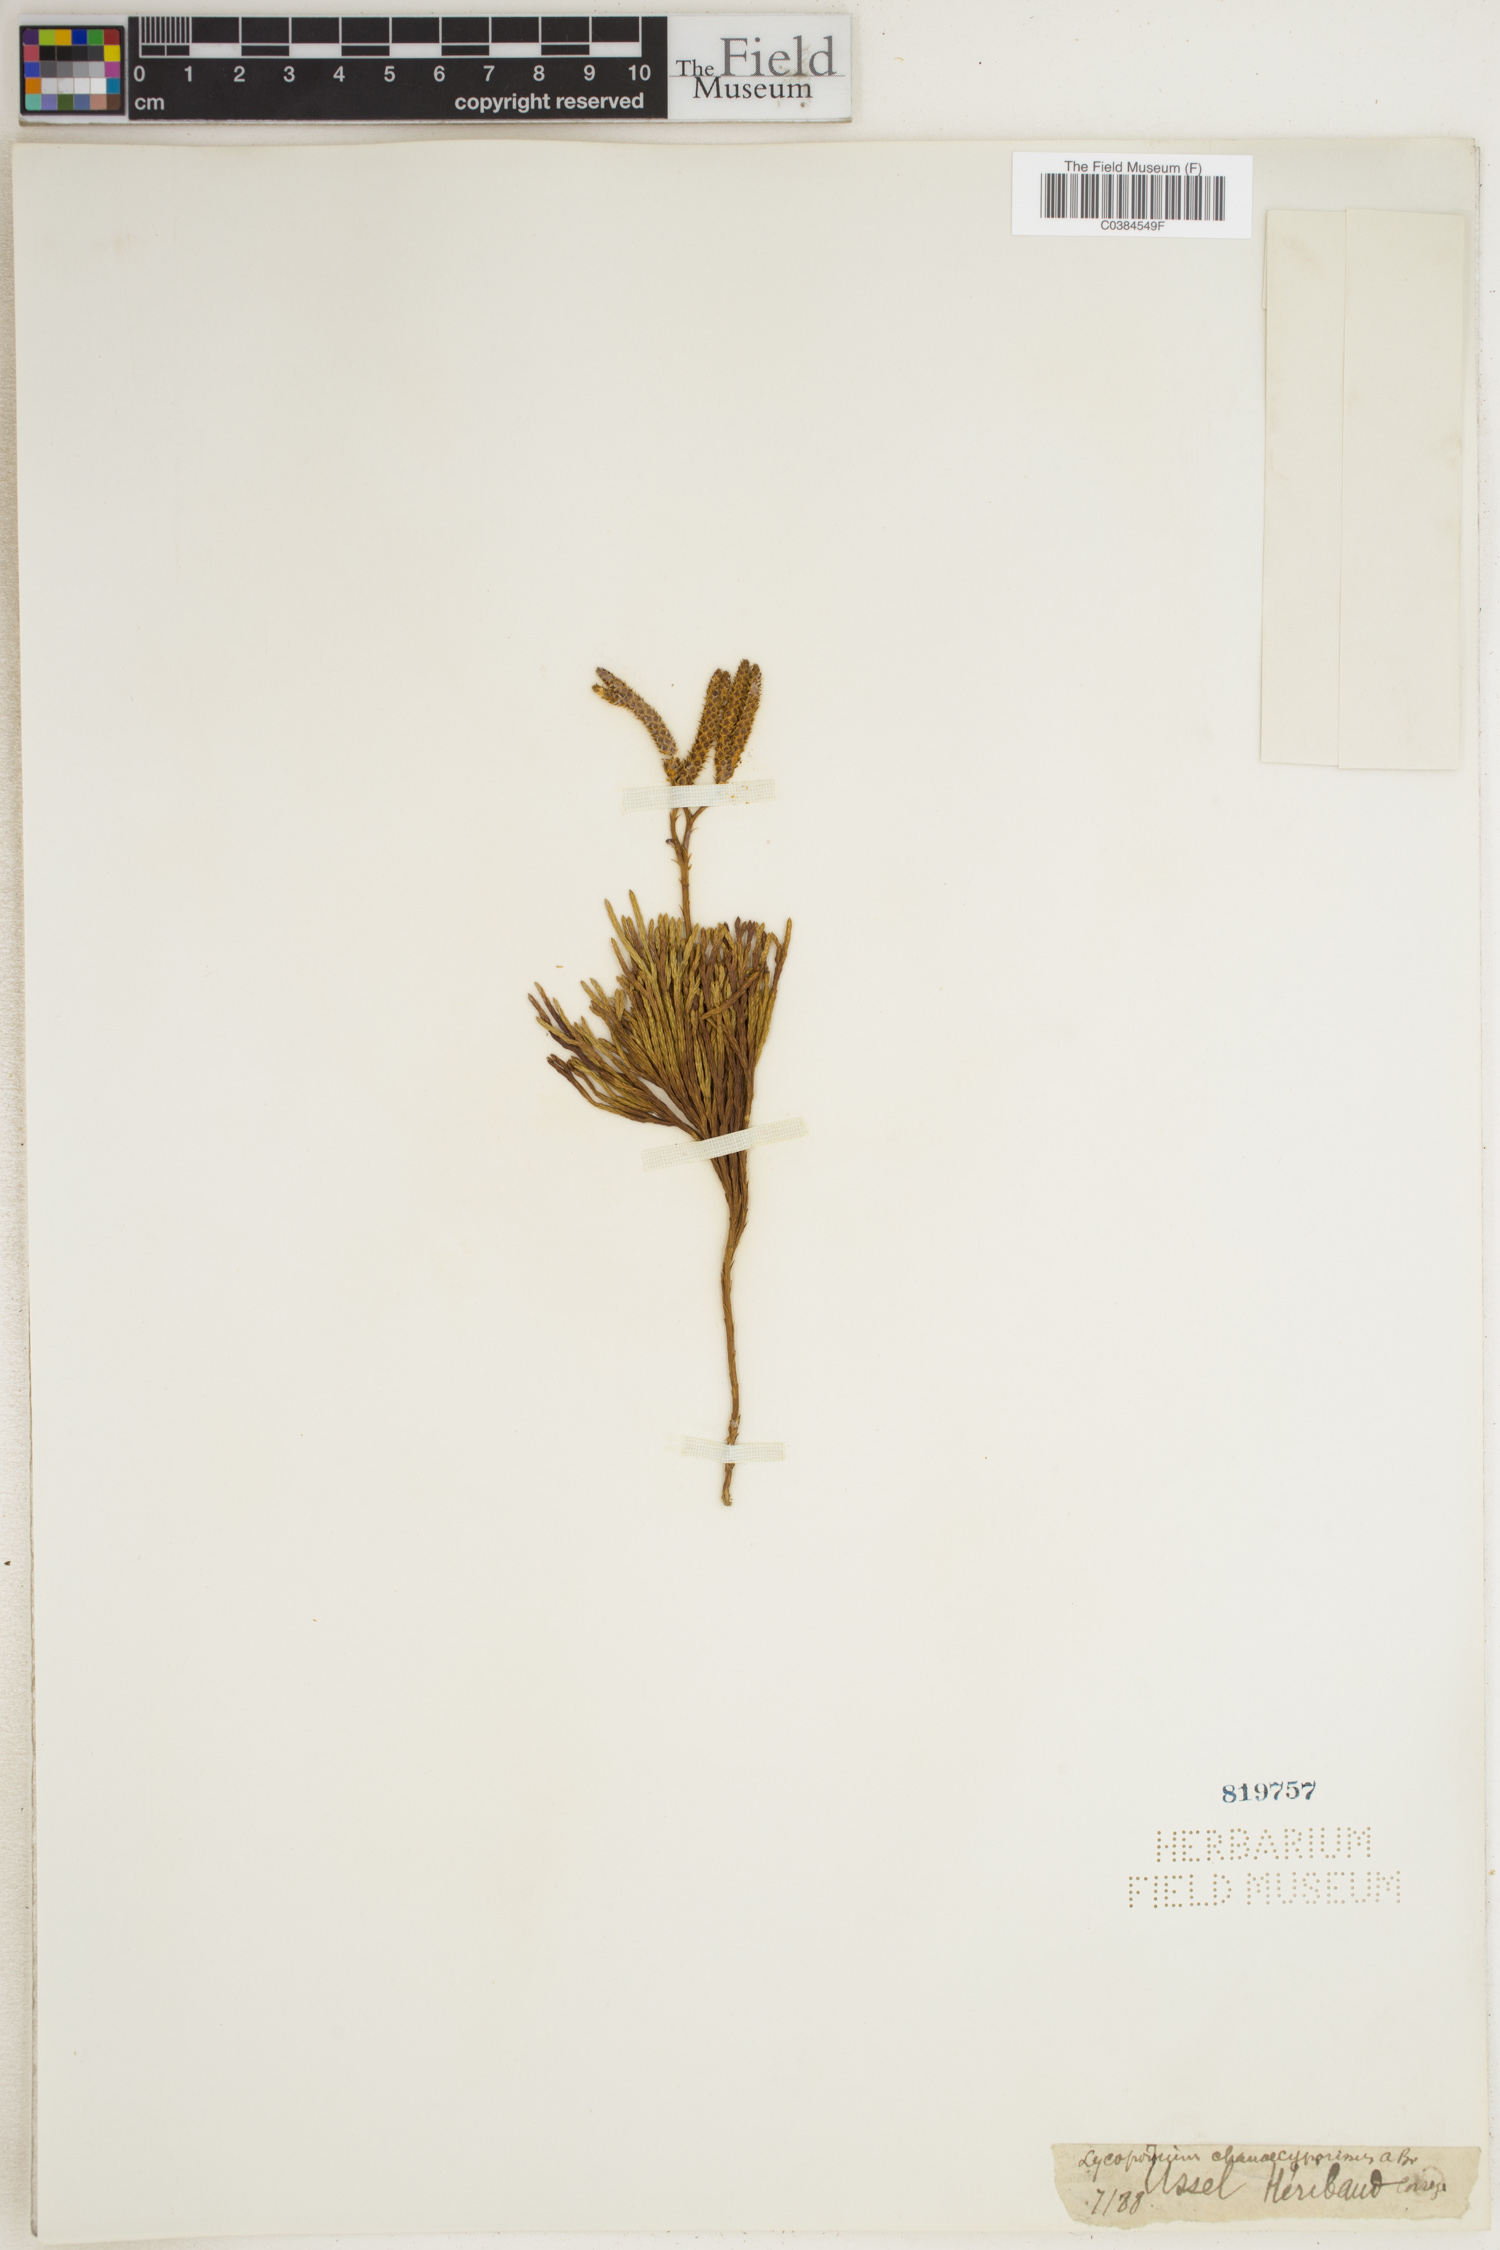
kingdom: Plantae
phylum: Tracheophyta
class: Lycopodiopsida
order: Lycopodiales
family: Lycopodiaceae
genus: Diphasiastrum
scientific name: Diphasiastrum tristachyum
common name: Blue ground-cedar
